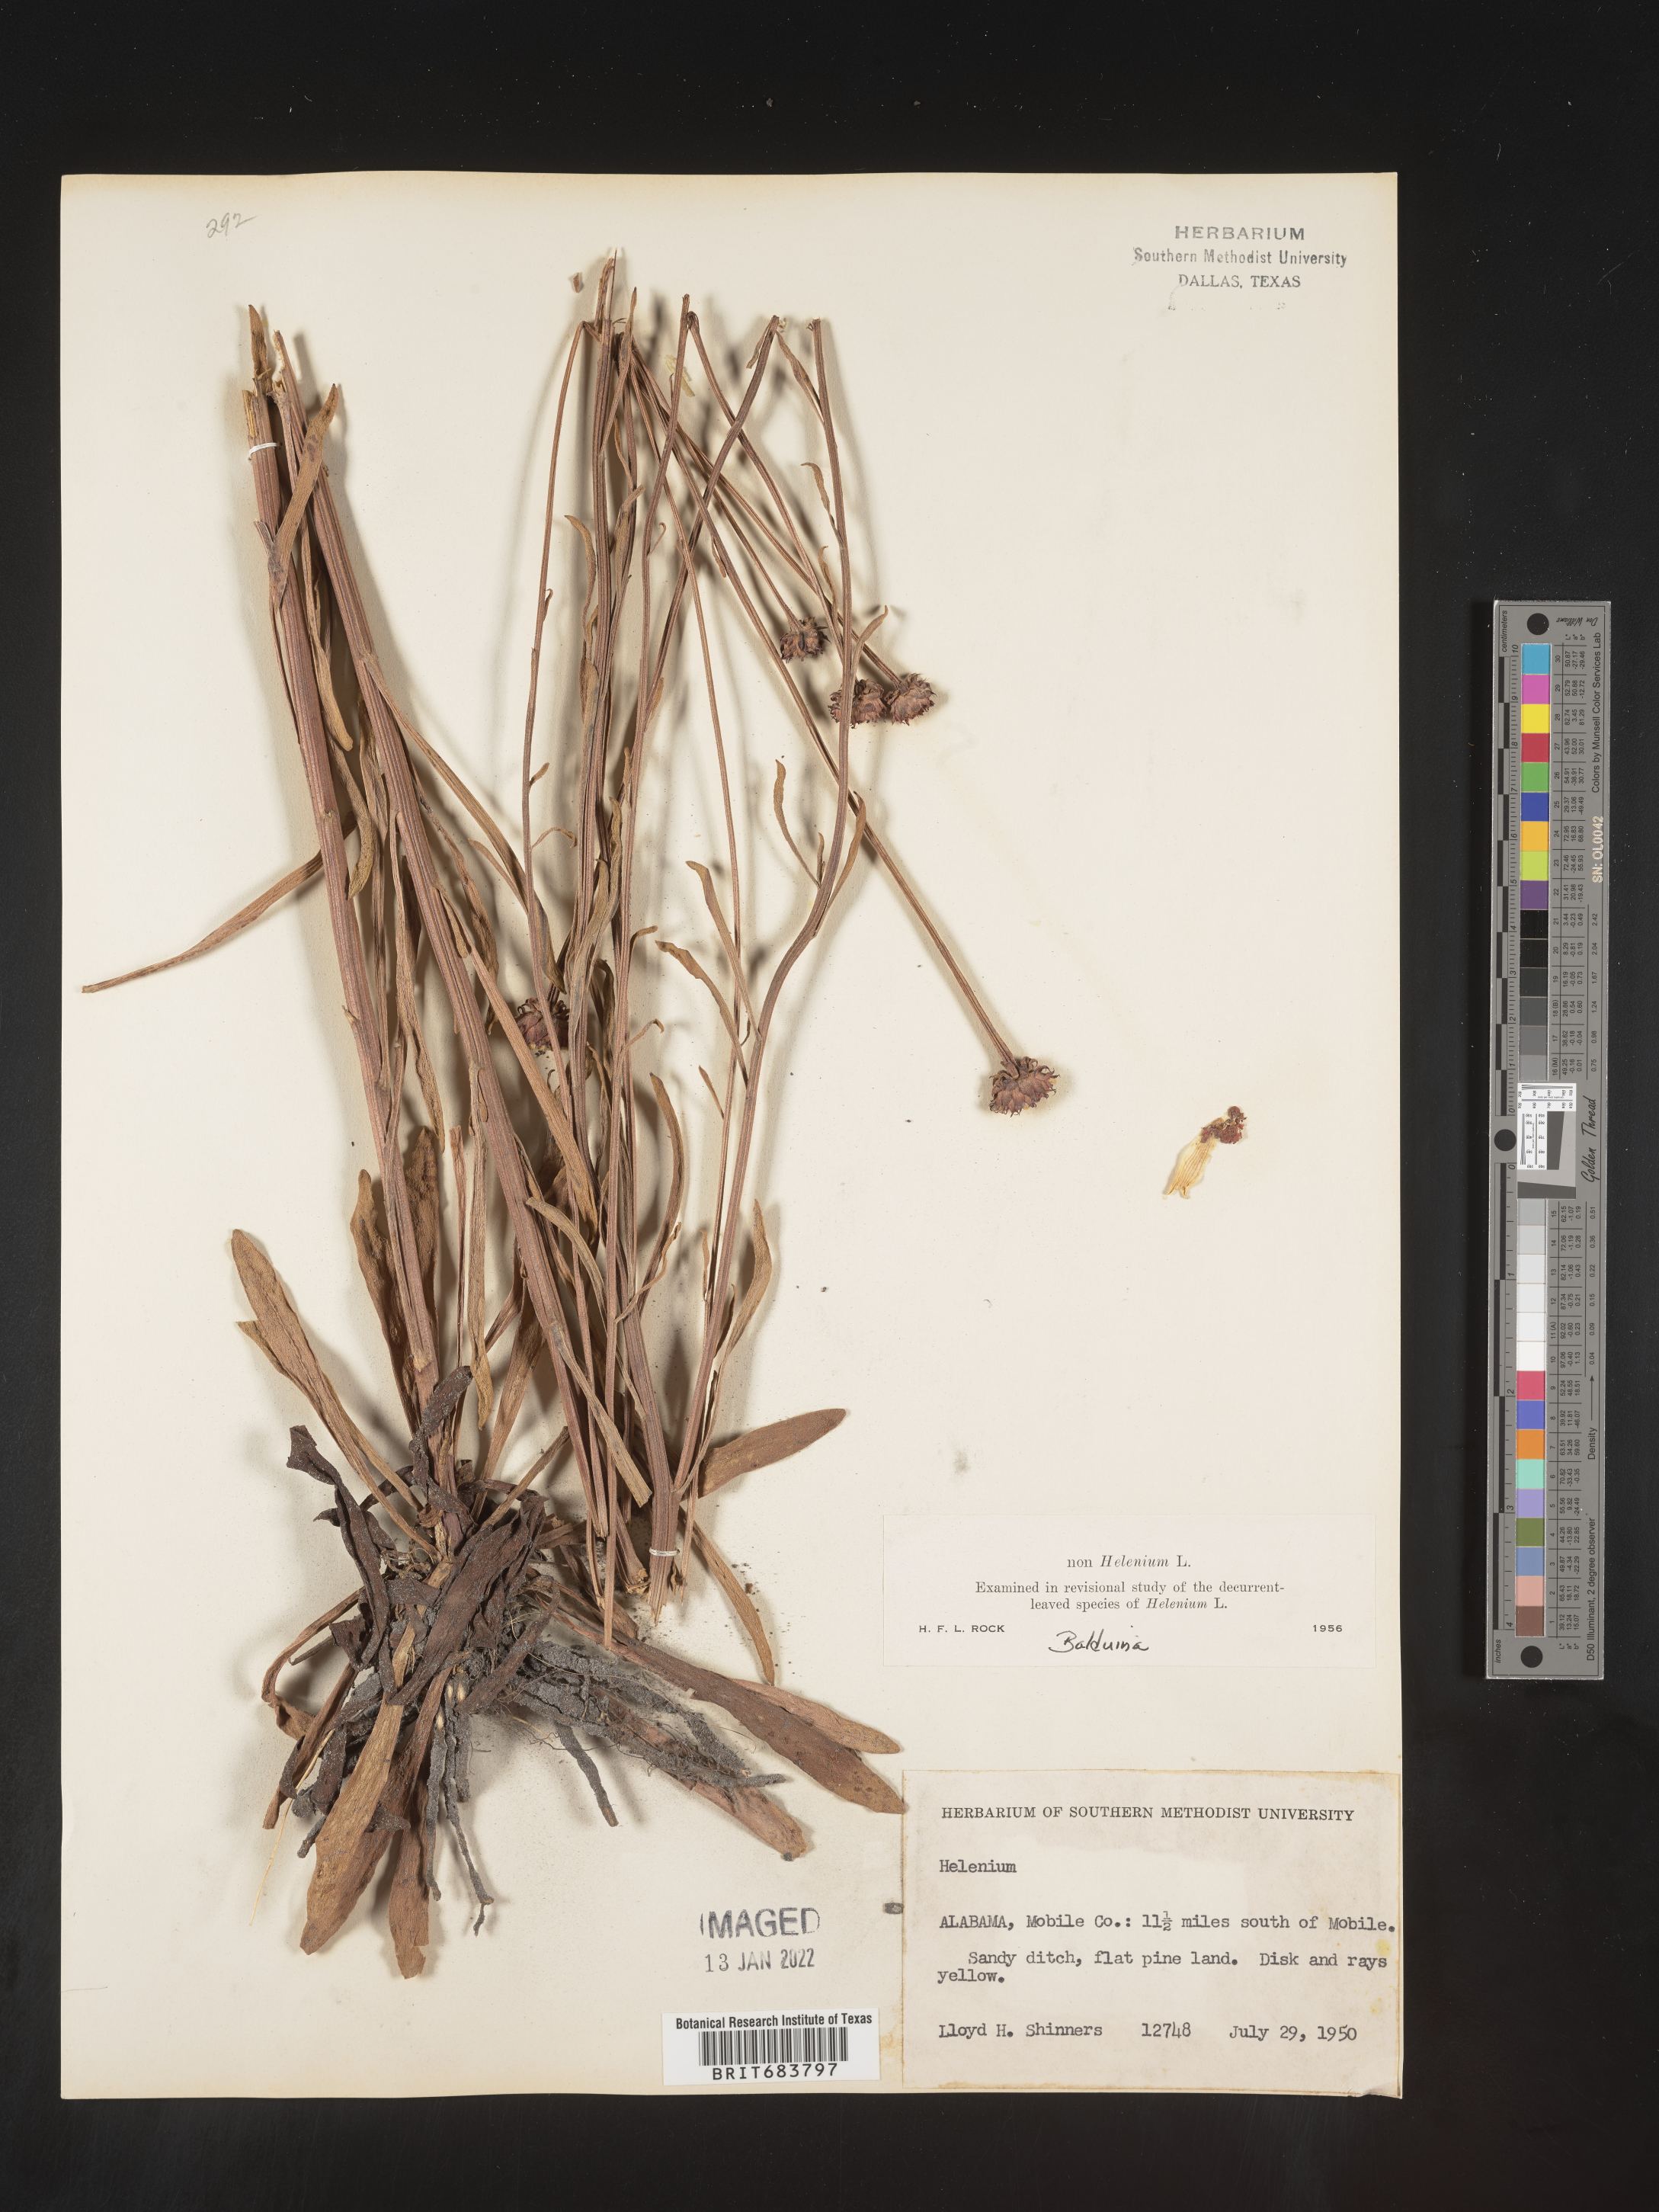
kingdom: Plantae
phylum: Tracheophyta
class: Magnoliopsida
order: Asterales
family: Asteraceae
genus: Balduina
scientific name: Balduina uniflora
